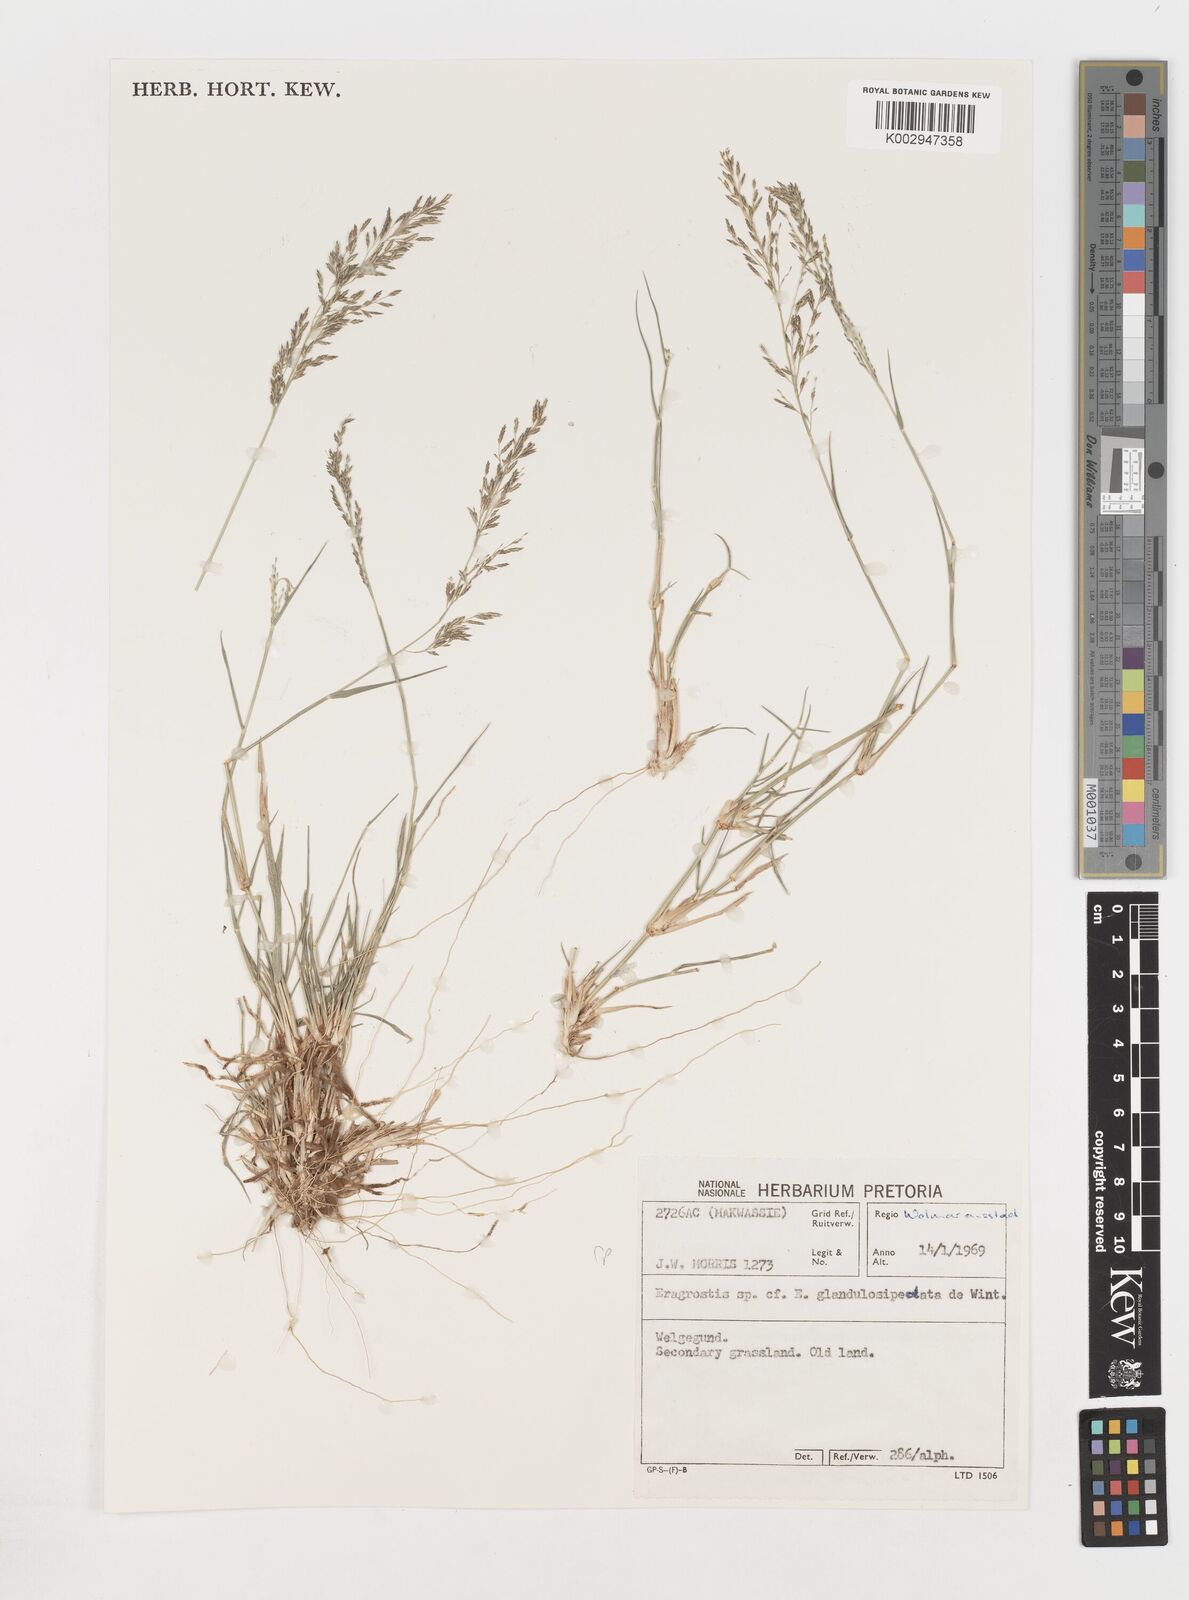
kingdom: Plantae
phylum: Tracheophyta
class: Liliopsida
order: Poales
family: Poaceae
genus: Eragrostis
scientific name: Eragrostis
